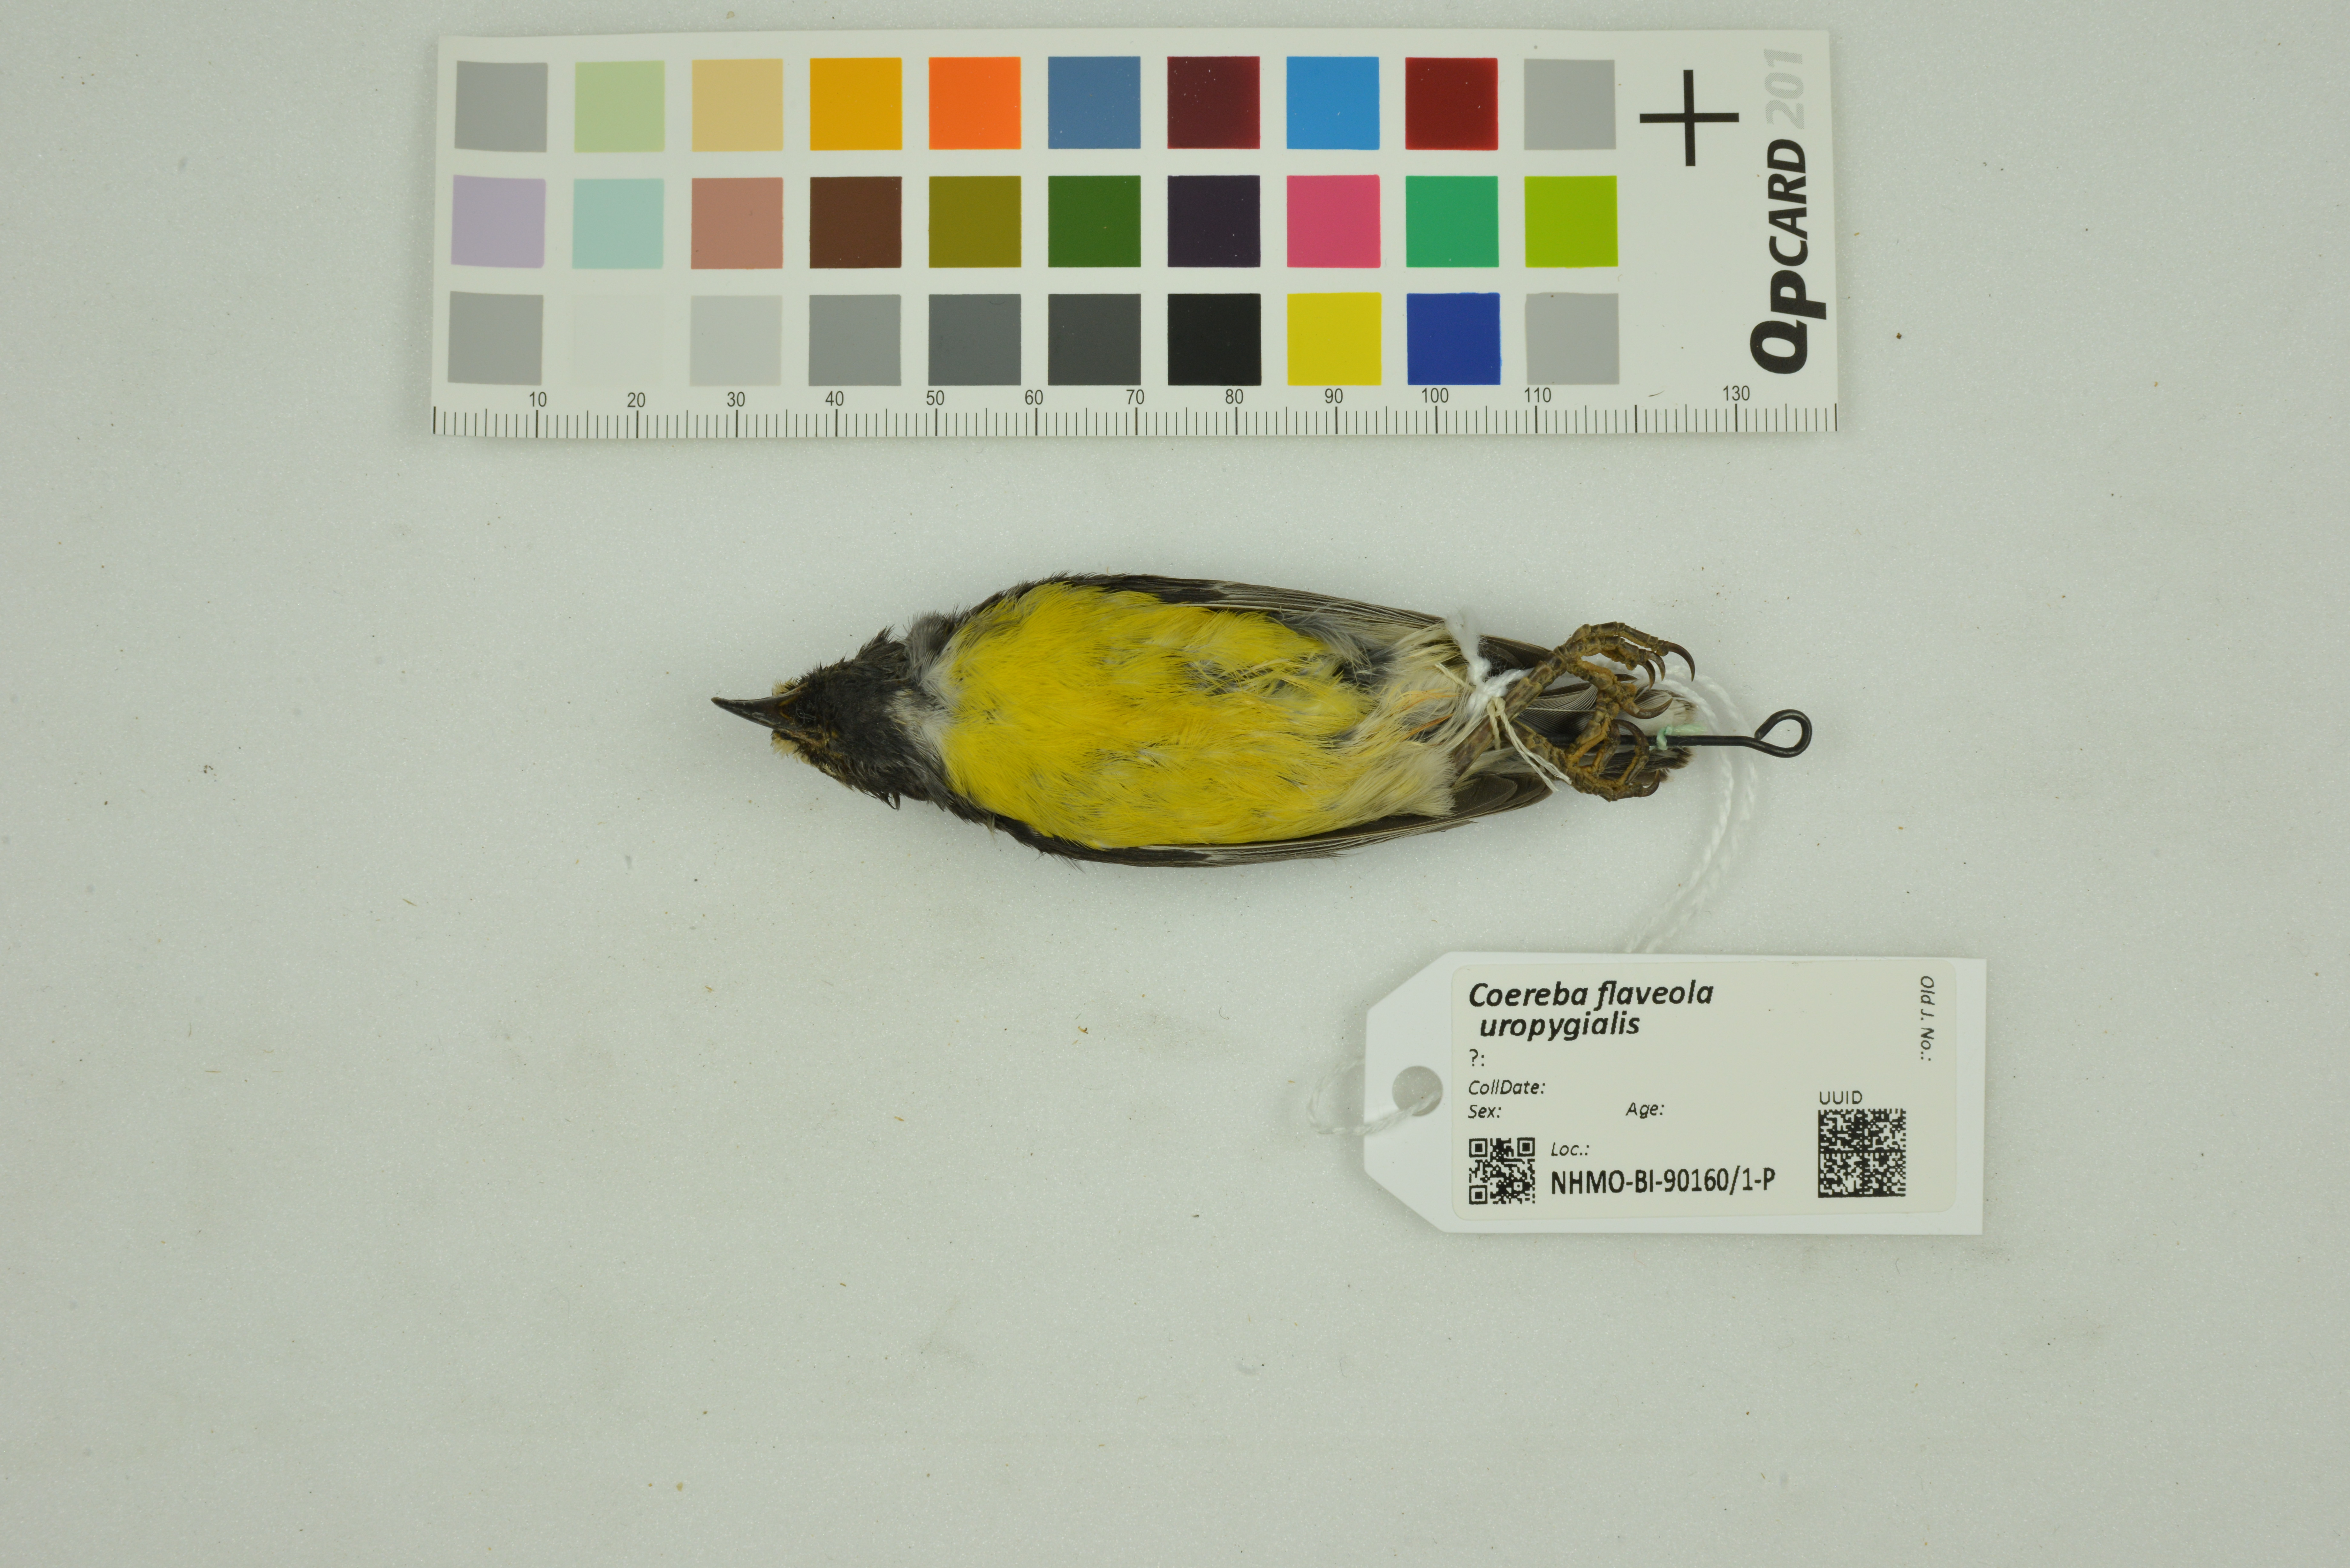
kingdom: Animalia
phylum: Chordata
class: Aves
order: Passeriformes
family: Thraupidae
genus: Coereba
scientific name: Coereba flaveola
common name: Bananaquit
